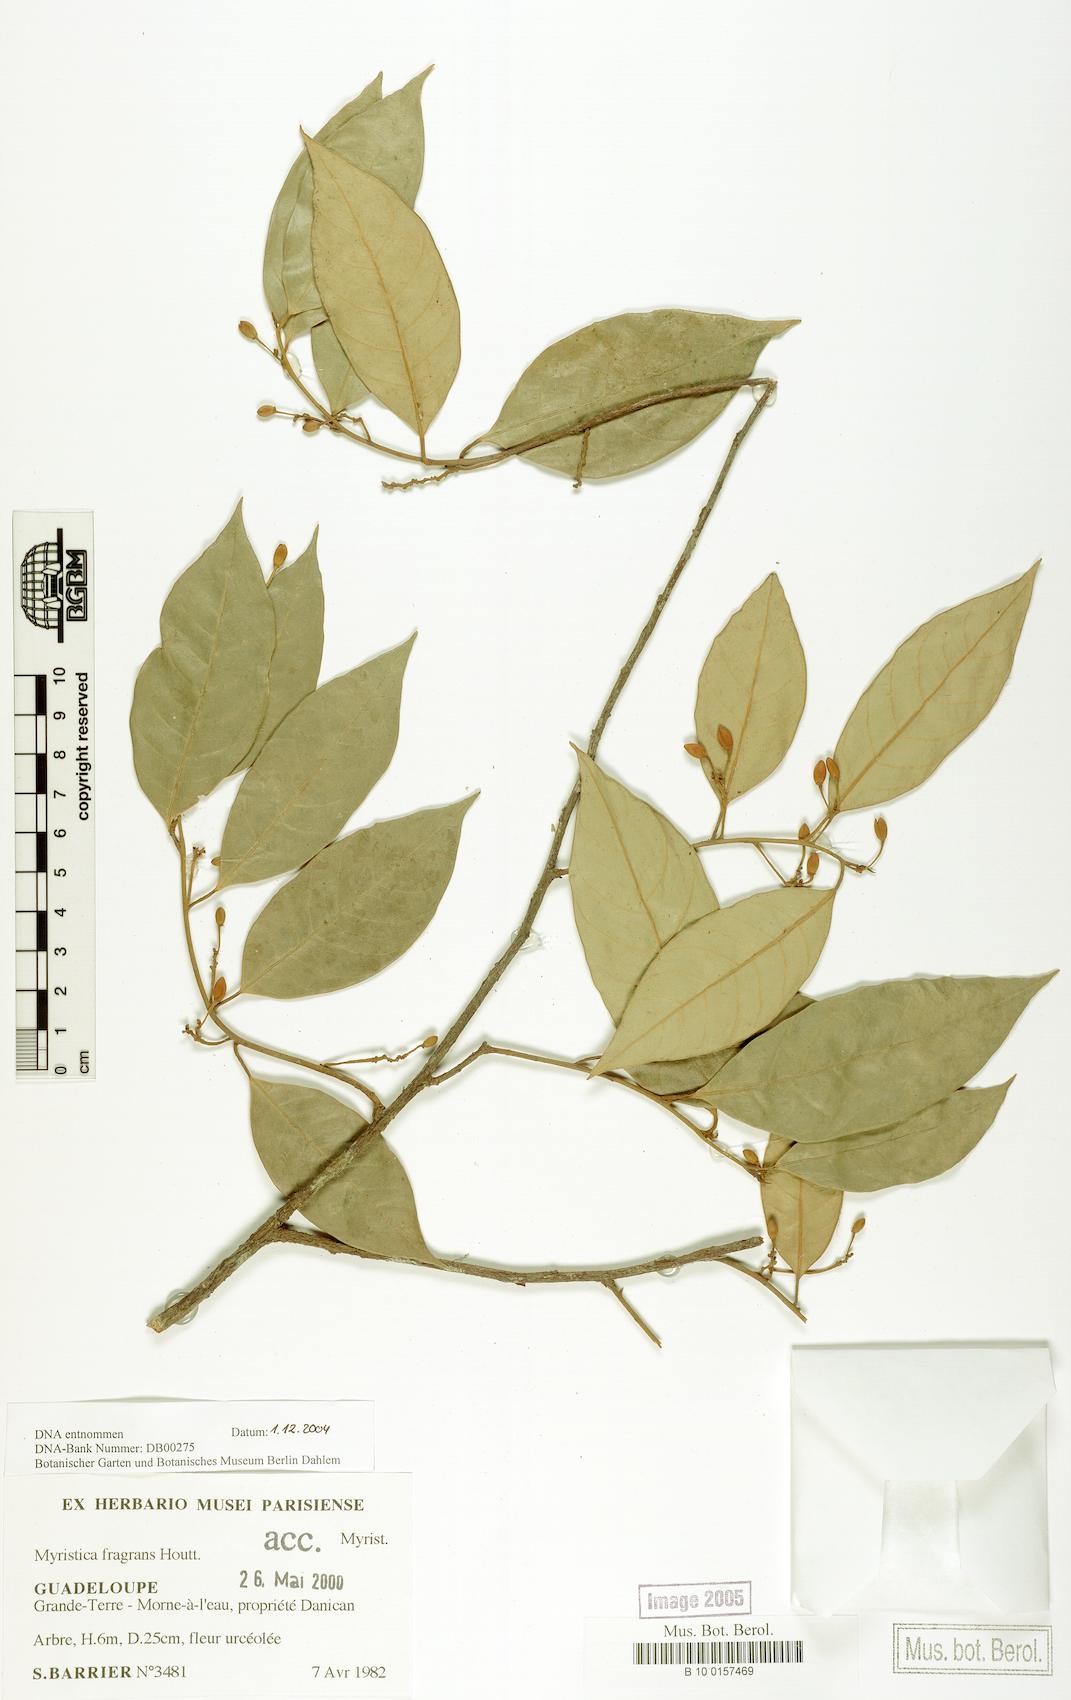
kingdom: Plantae
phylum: Tracheophyta
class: Magnoliopsida
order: Magnoliales
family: Myristicaceae
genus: Myristica
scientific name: Myristica fragrans
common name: Nutmeg
